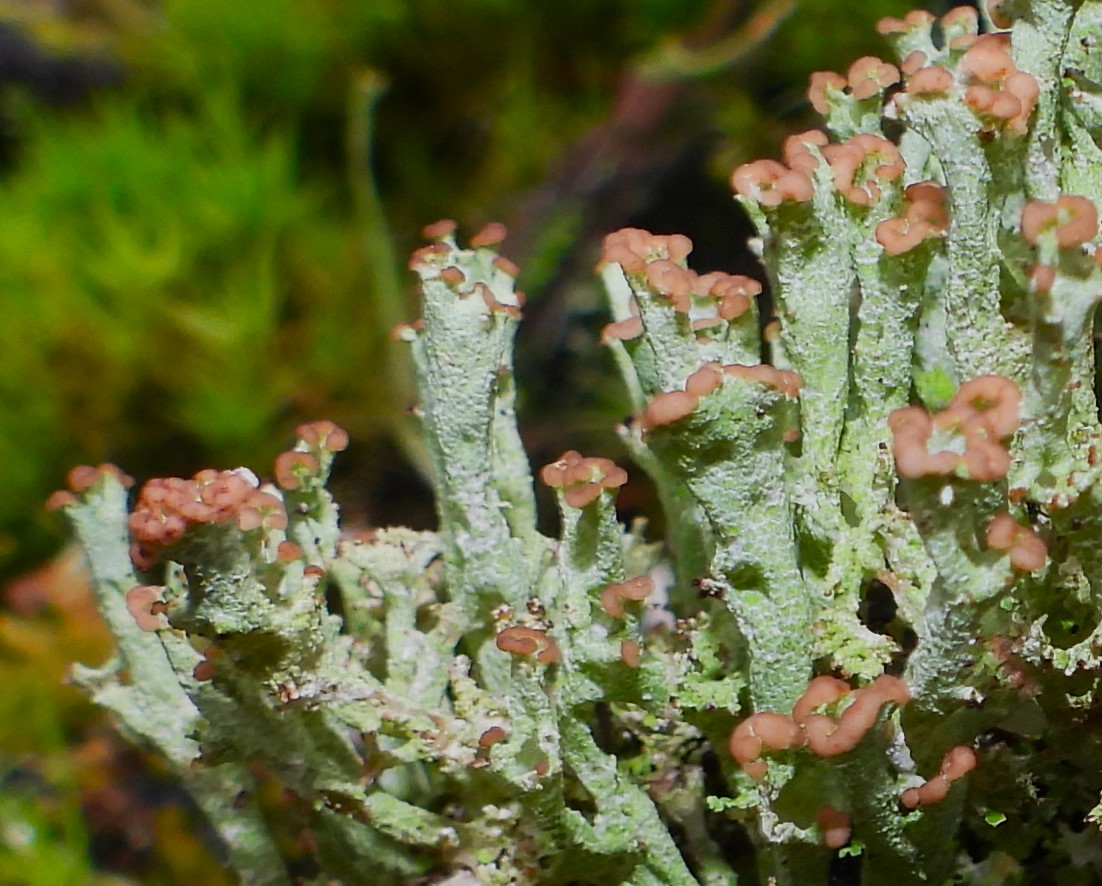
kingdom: Fungi
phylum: Ascomycota
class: Lecanoromycetes
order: Lecanorales
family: Cladoniaceae
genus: Cladonia
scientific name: Cladonia ramulosa
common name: kliddet bægerlav
